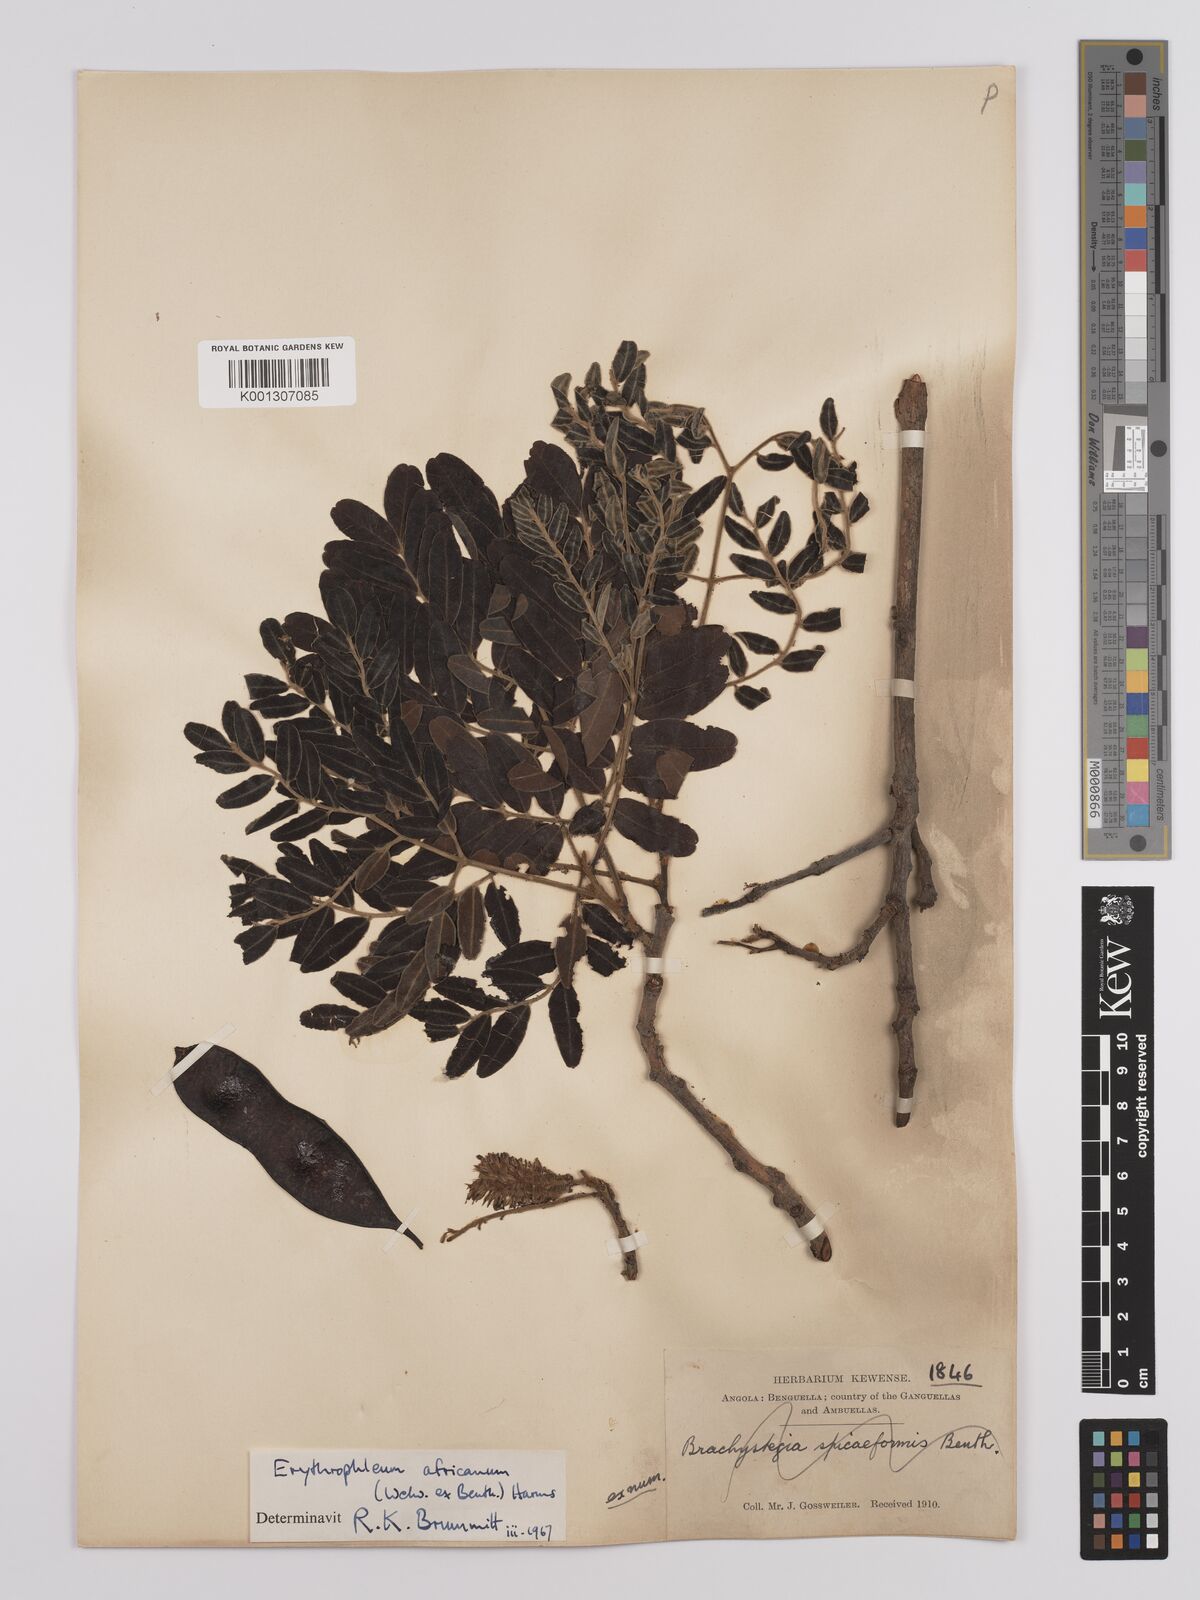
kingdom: Plantae
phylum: Tracheophyta
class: Magnoliopsida
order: Fabales
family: Fabaceae
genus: Erythrophleum
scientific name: Erythrophleum africanum
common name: African blackwood
